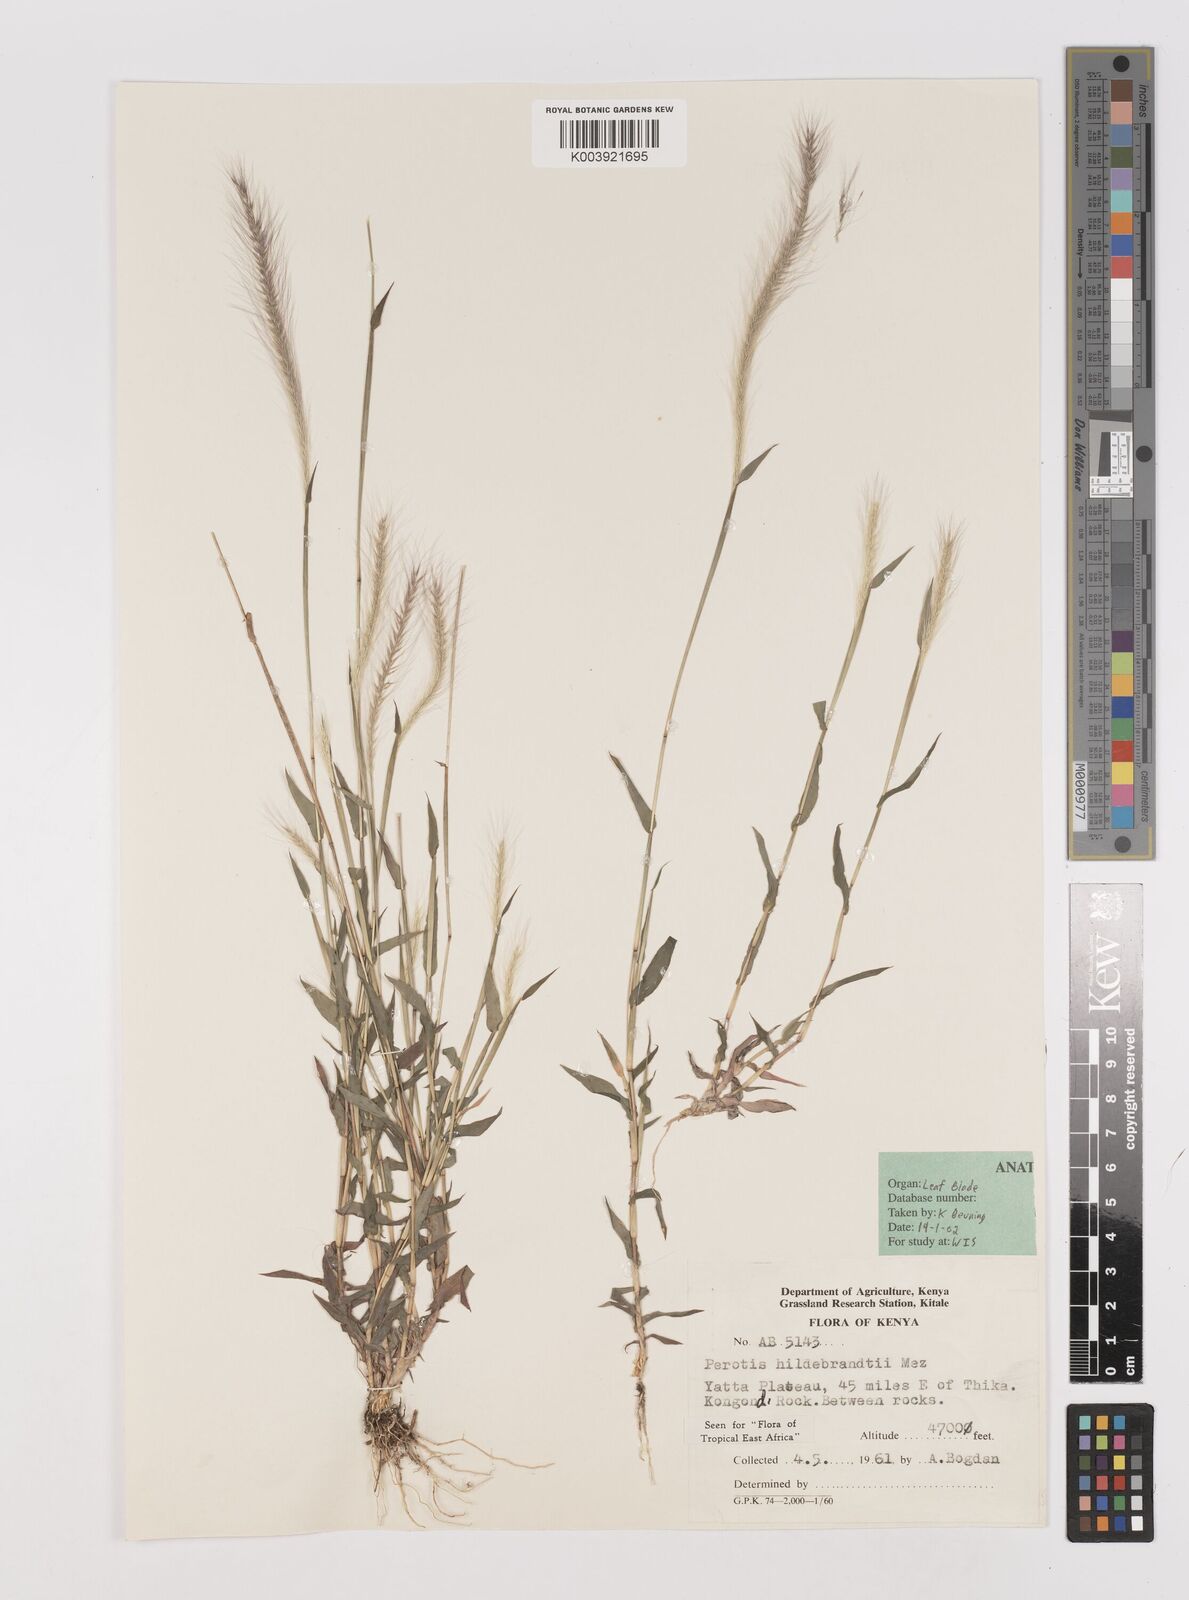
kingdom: Plantae
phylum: Tracheophyta
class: Liliopsida
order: Poales
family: Poaceae
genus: Perotis
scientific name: Perotis hildebrandtii
